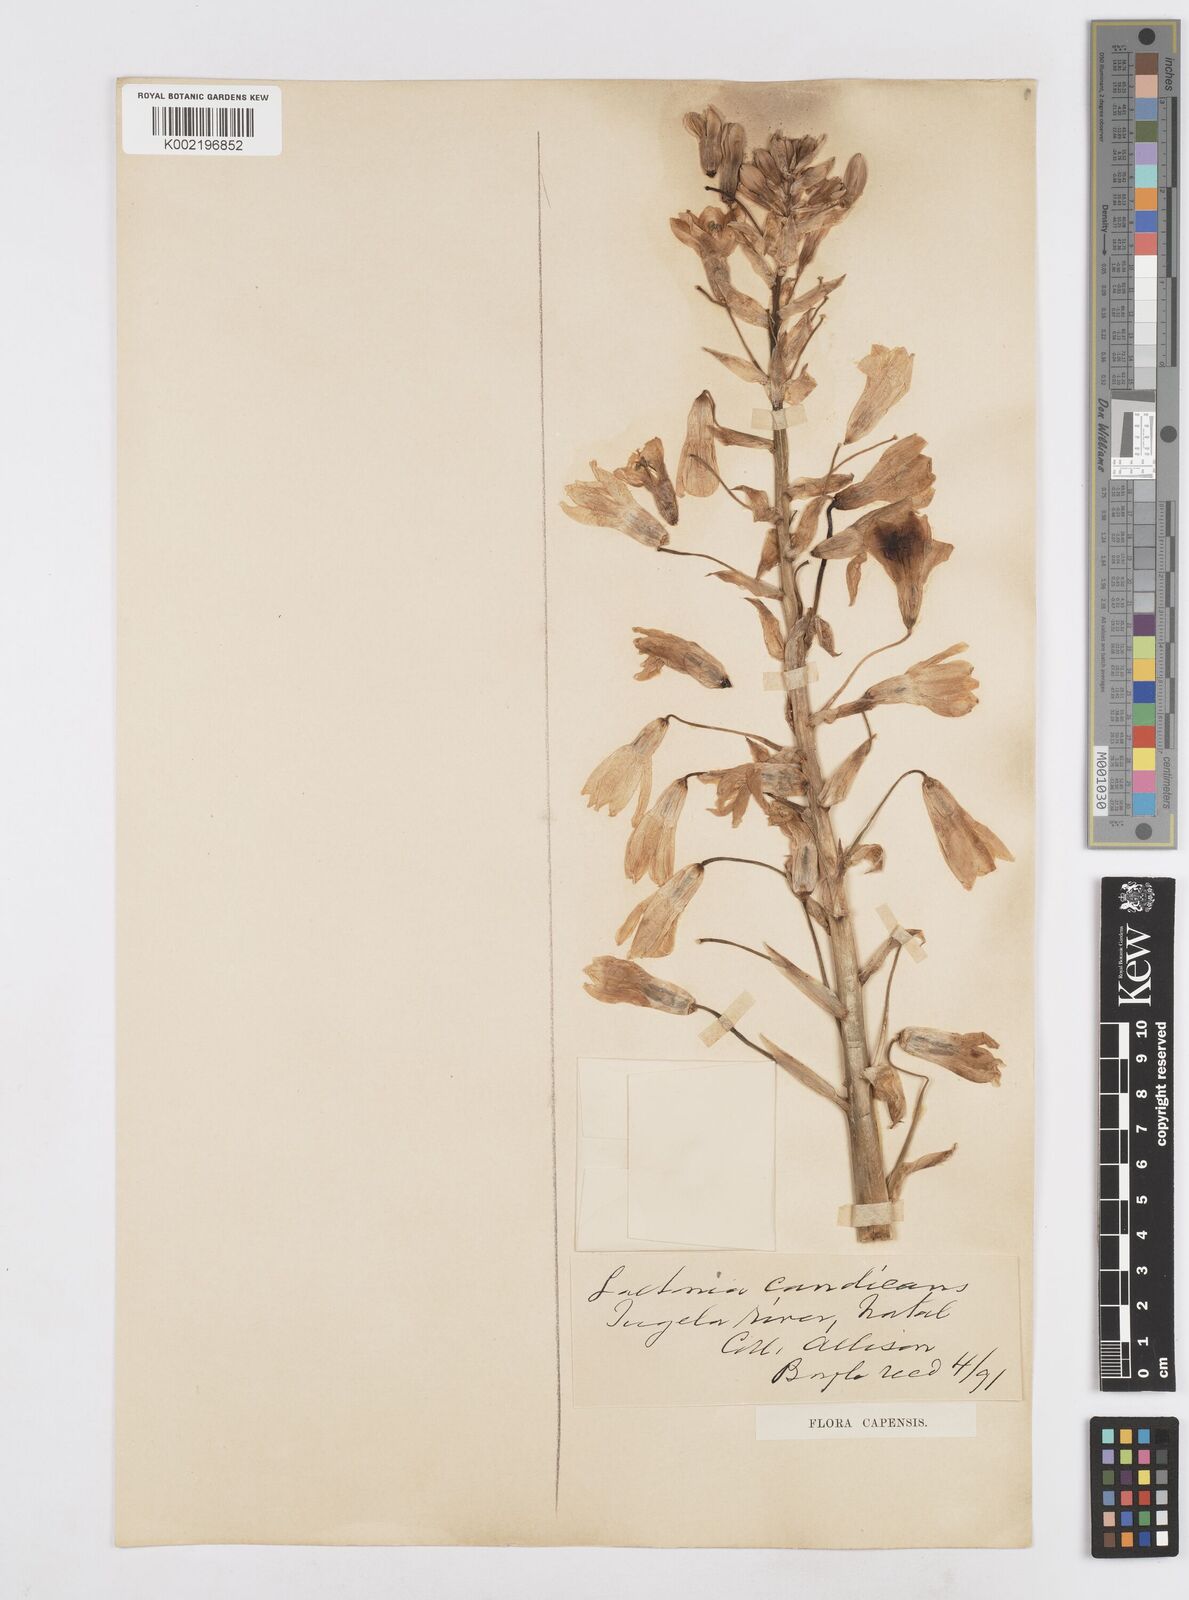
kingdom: Plantae
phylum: Tracheophyta
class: Liliopsida
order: Asparagales
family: Asparagaceae
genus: Ornithogalum
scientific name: Ornithogalum candicans
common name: Summer-hyacinth
